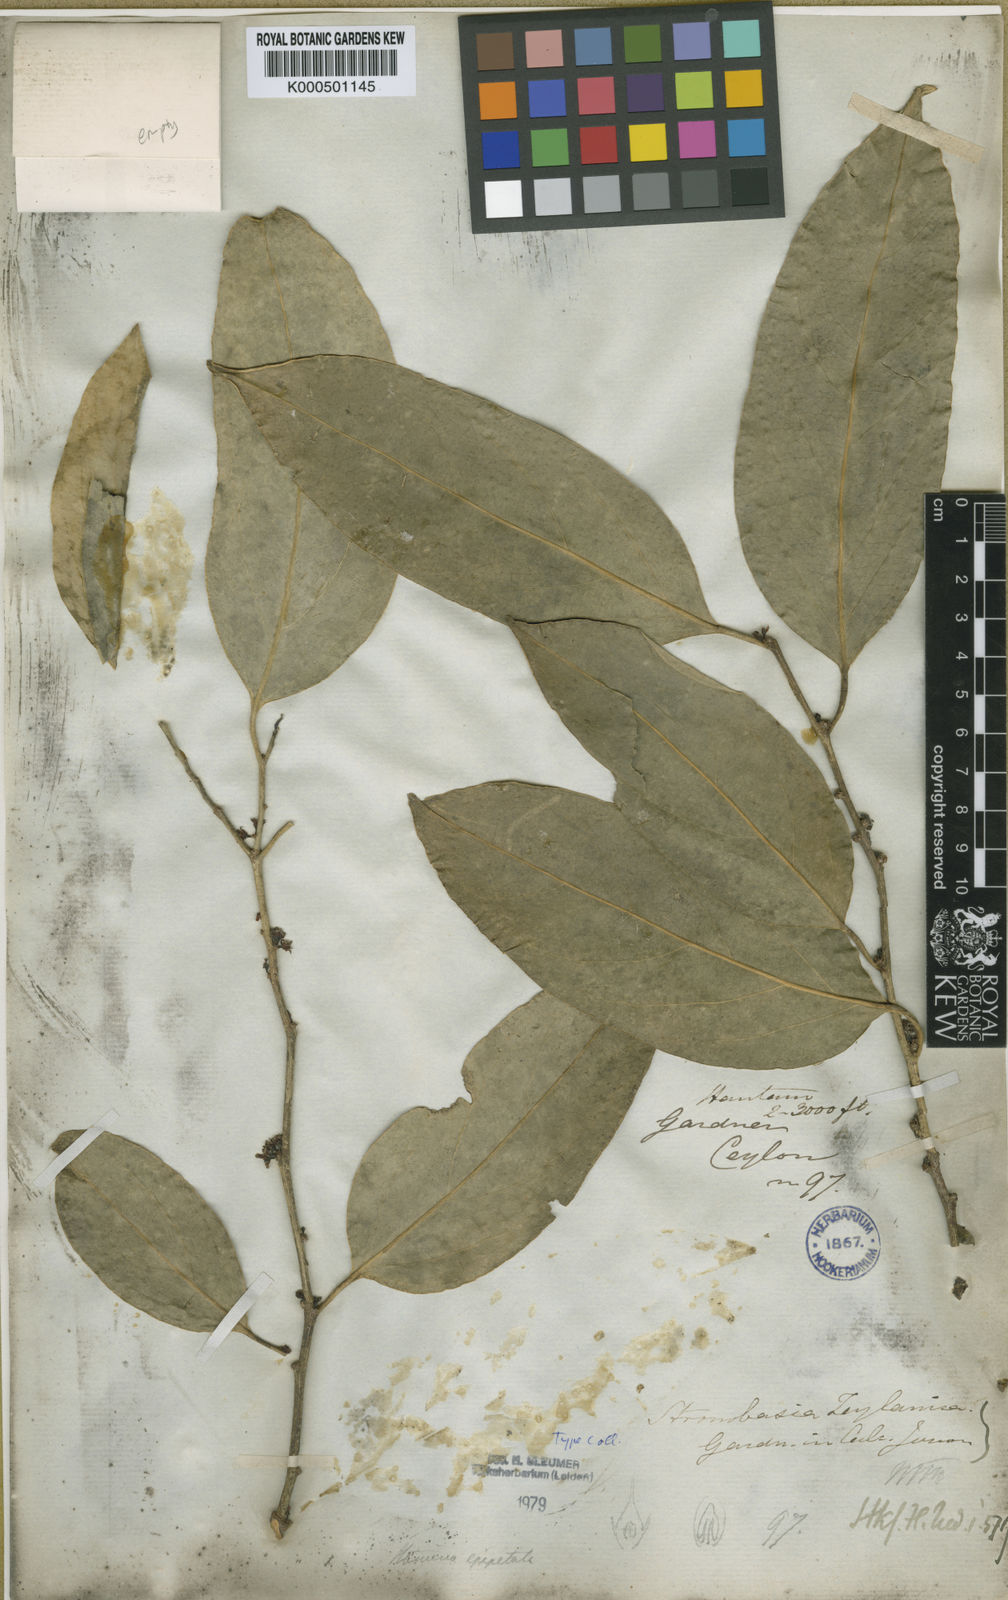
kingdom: Plantae
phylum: Tracheophyta
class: Magnoliopsida
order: Santalales
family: Strombosiaceae
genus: Strombosia
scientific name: Strombosia ceylanica
